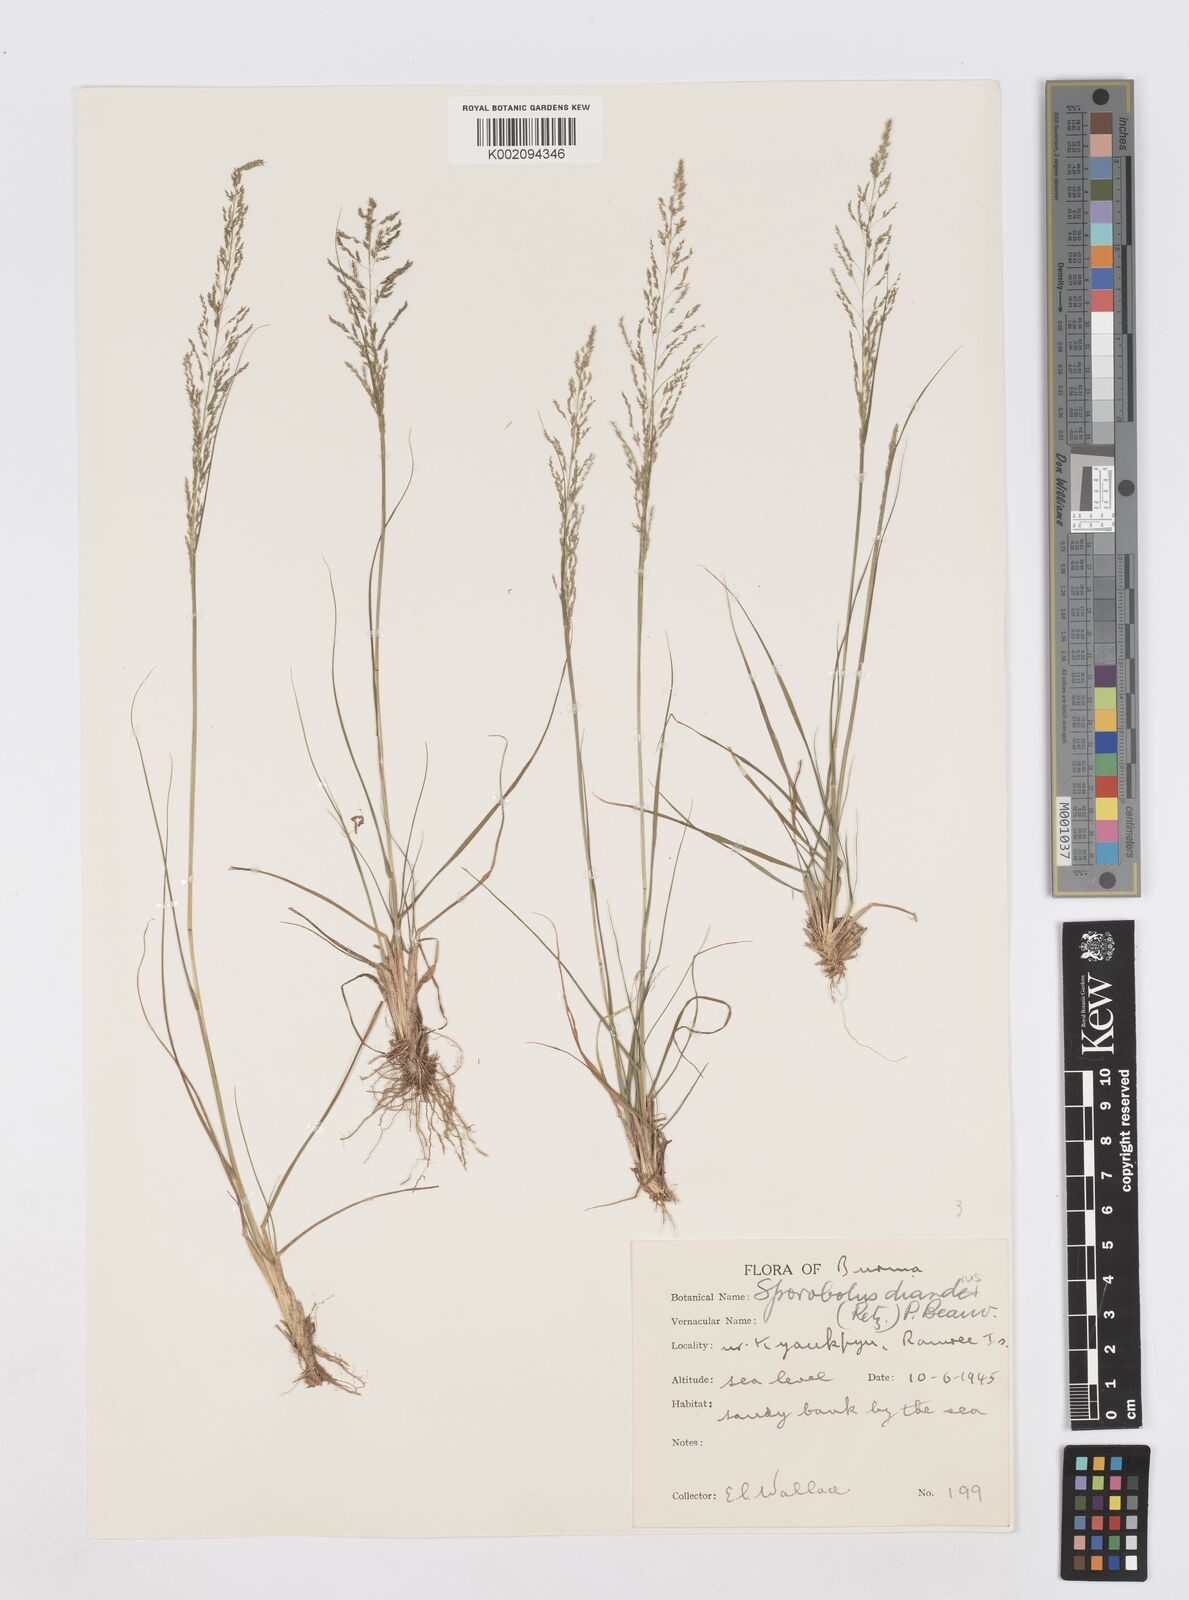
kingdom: Plantae
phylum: Tracheophyta
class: Liliopsida
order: Poales
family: Poaceae
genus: Sporobolus
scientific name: Sporobolus diandrus
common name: Tussock dropseed
